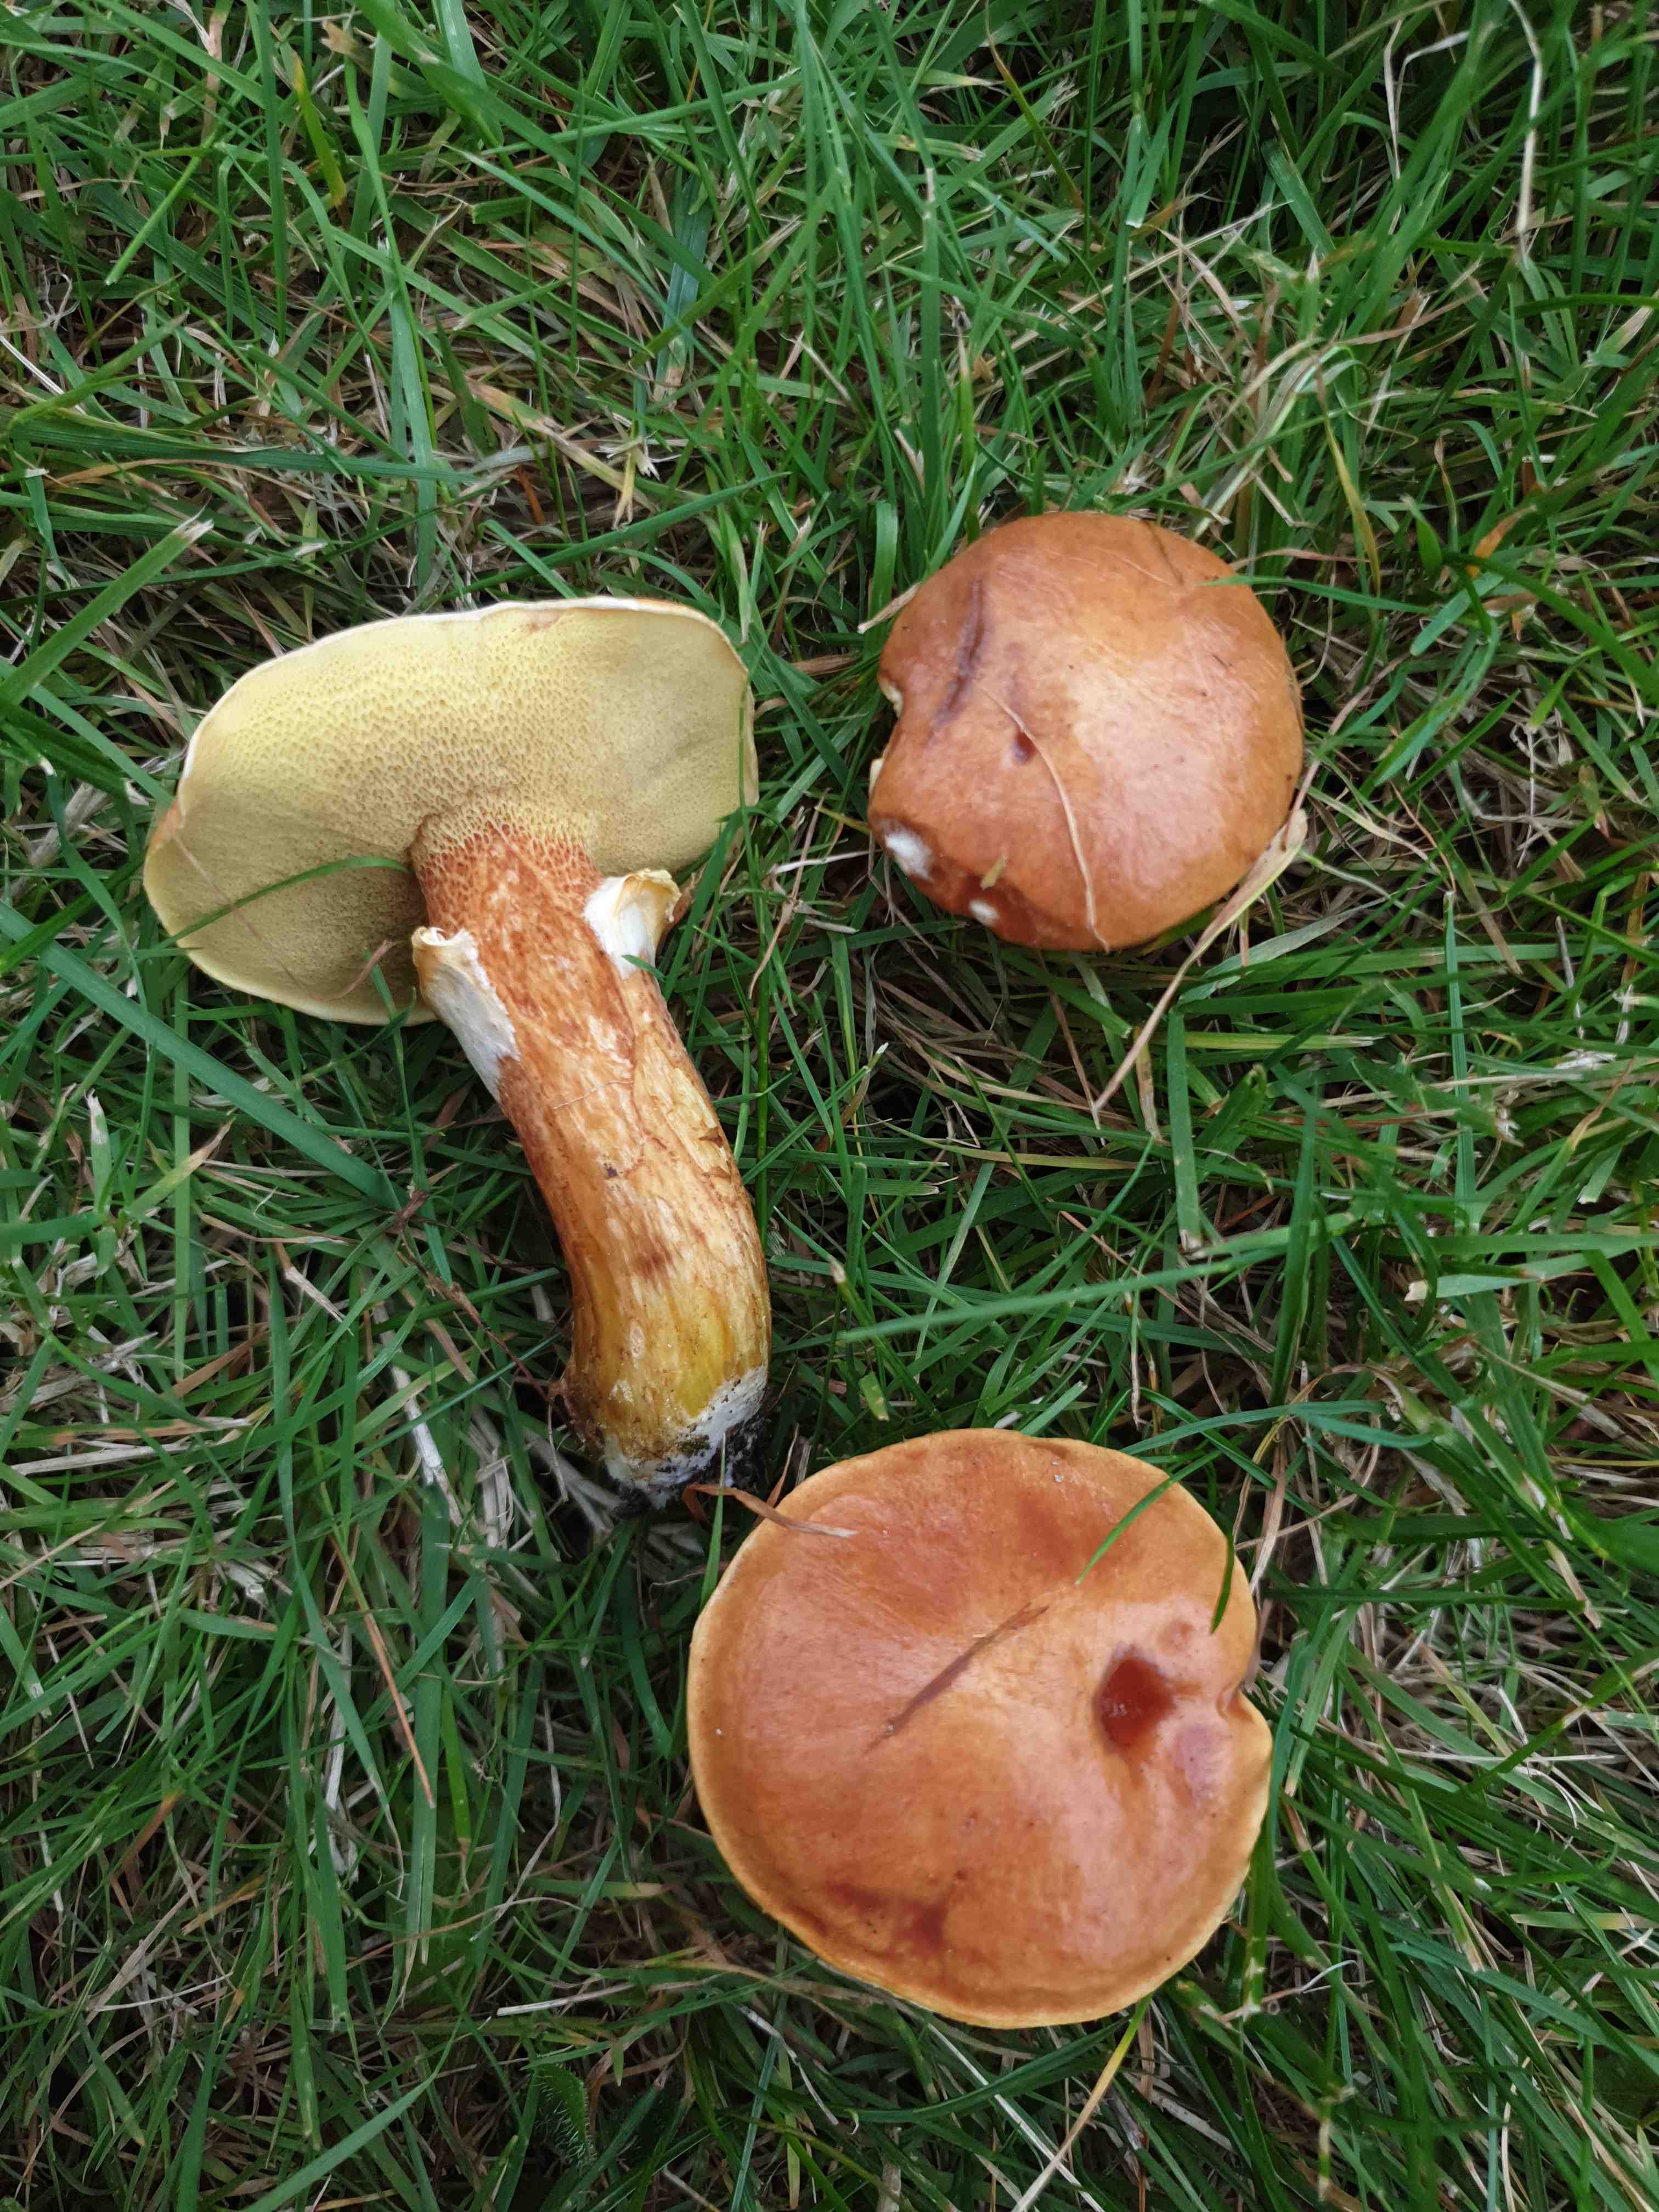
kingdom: Fungi
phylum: Basidiomycota
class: Agaricomycetes
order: Boletales
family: Suillaceae
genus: Suillus
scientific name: Suillus grevillei
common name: lærke-slimrørhat
